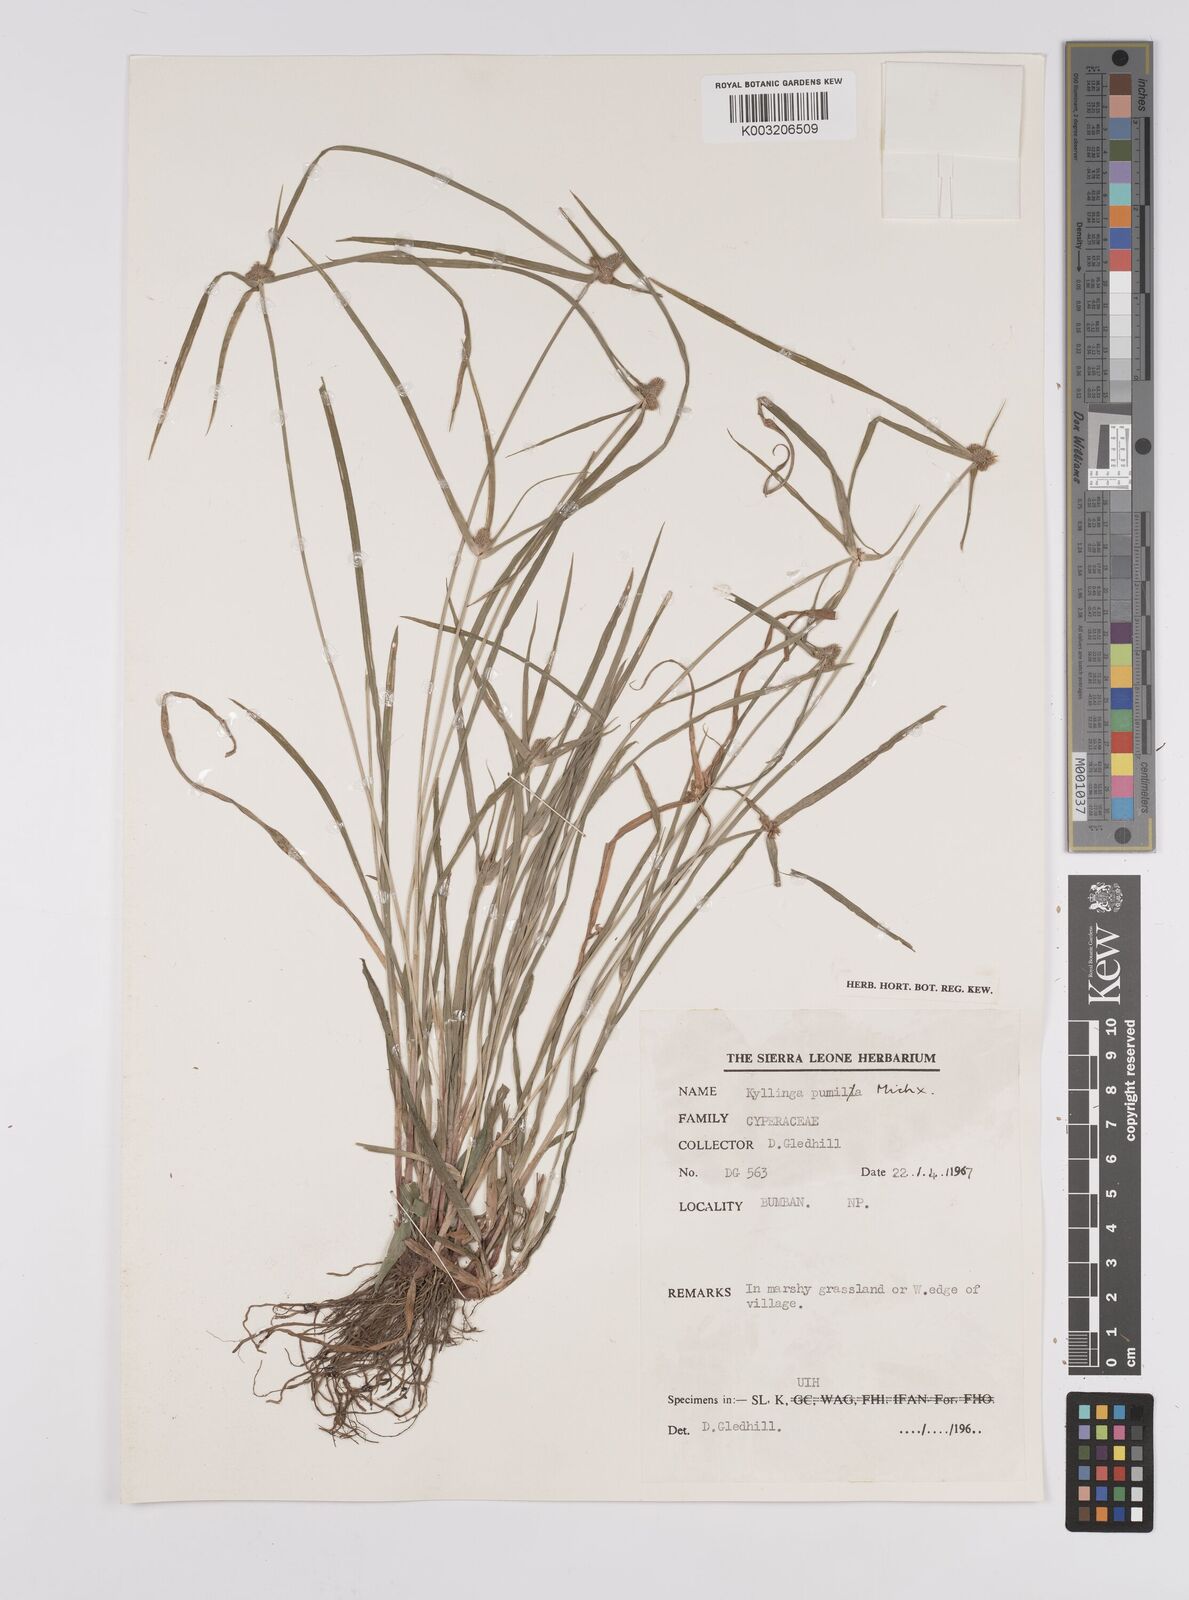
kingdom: Plantae
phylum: Tracheophyta
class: Liliopsida
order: Poales
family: Cyperaceae
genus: Cyperus
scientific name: Cyperus
